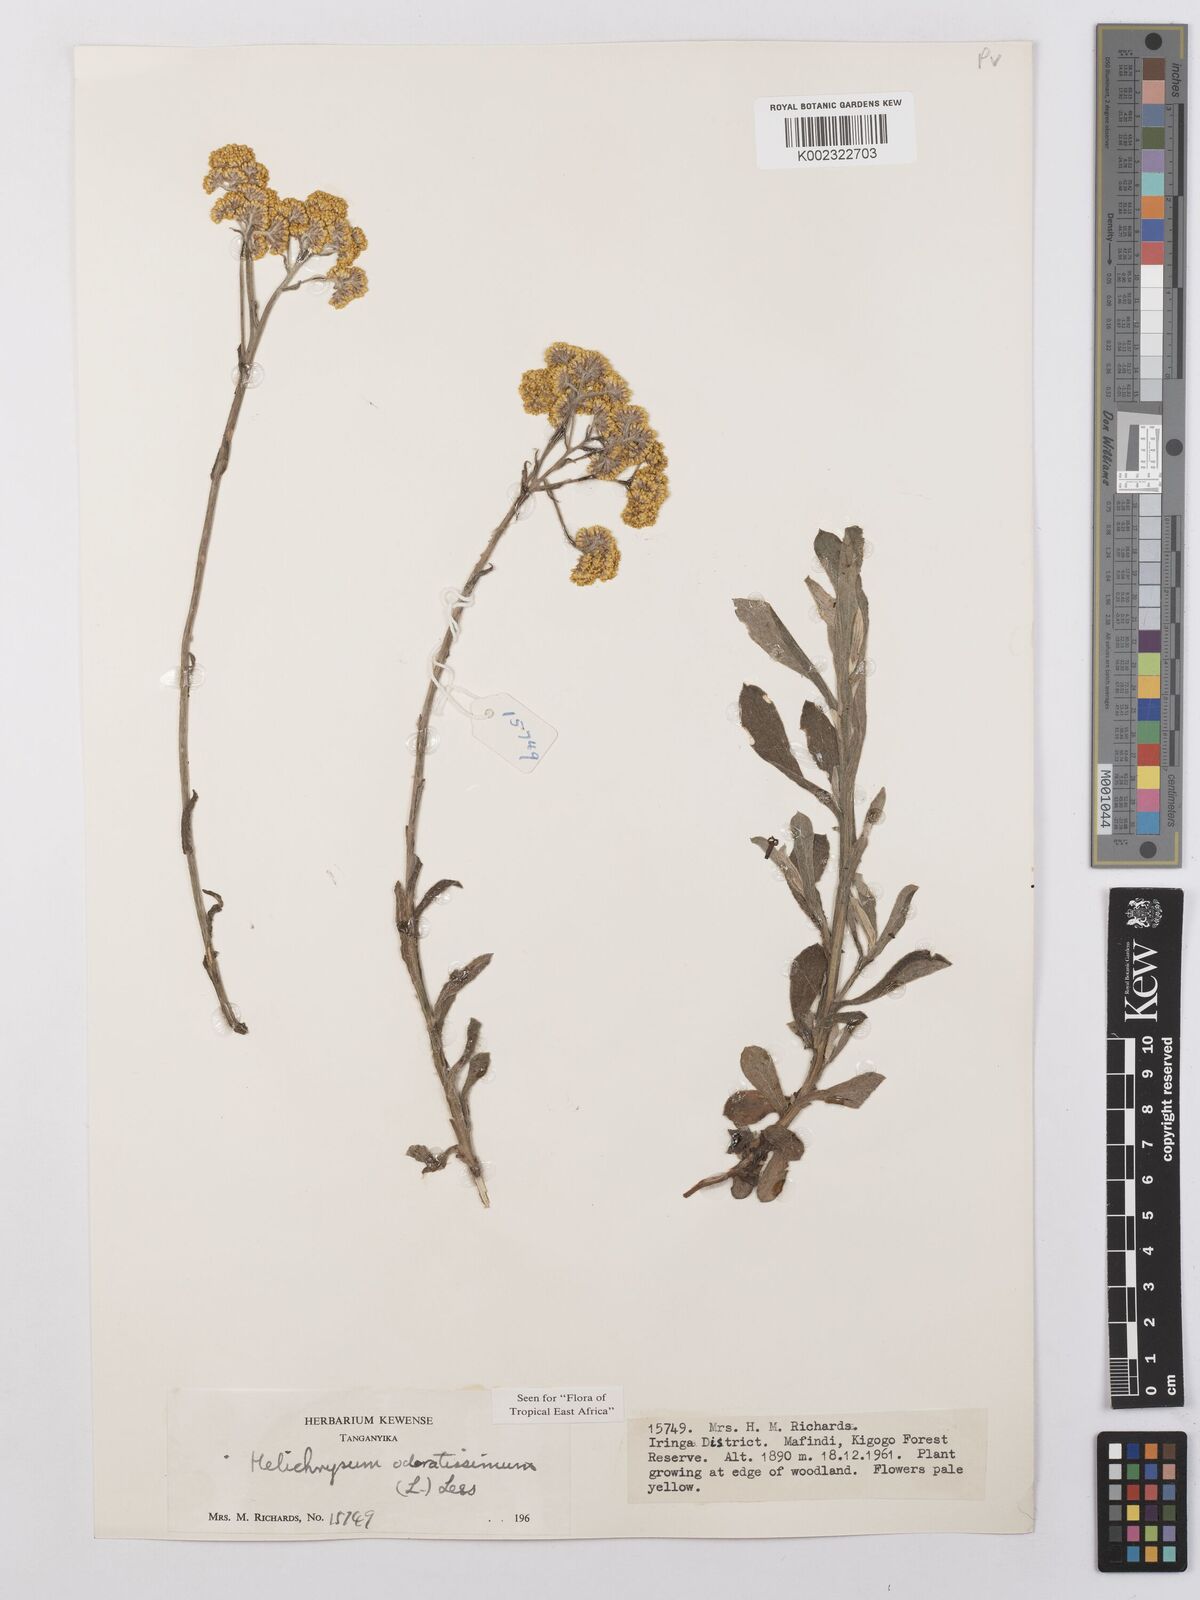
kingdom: Plantae
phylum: Tracheophyta
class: Magnoliopsida
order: Asterales
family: Asteraceae
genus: Helichrysum
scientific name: Helichrysum odoratissimum
